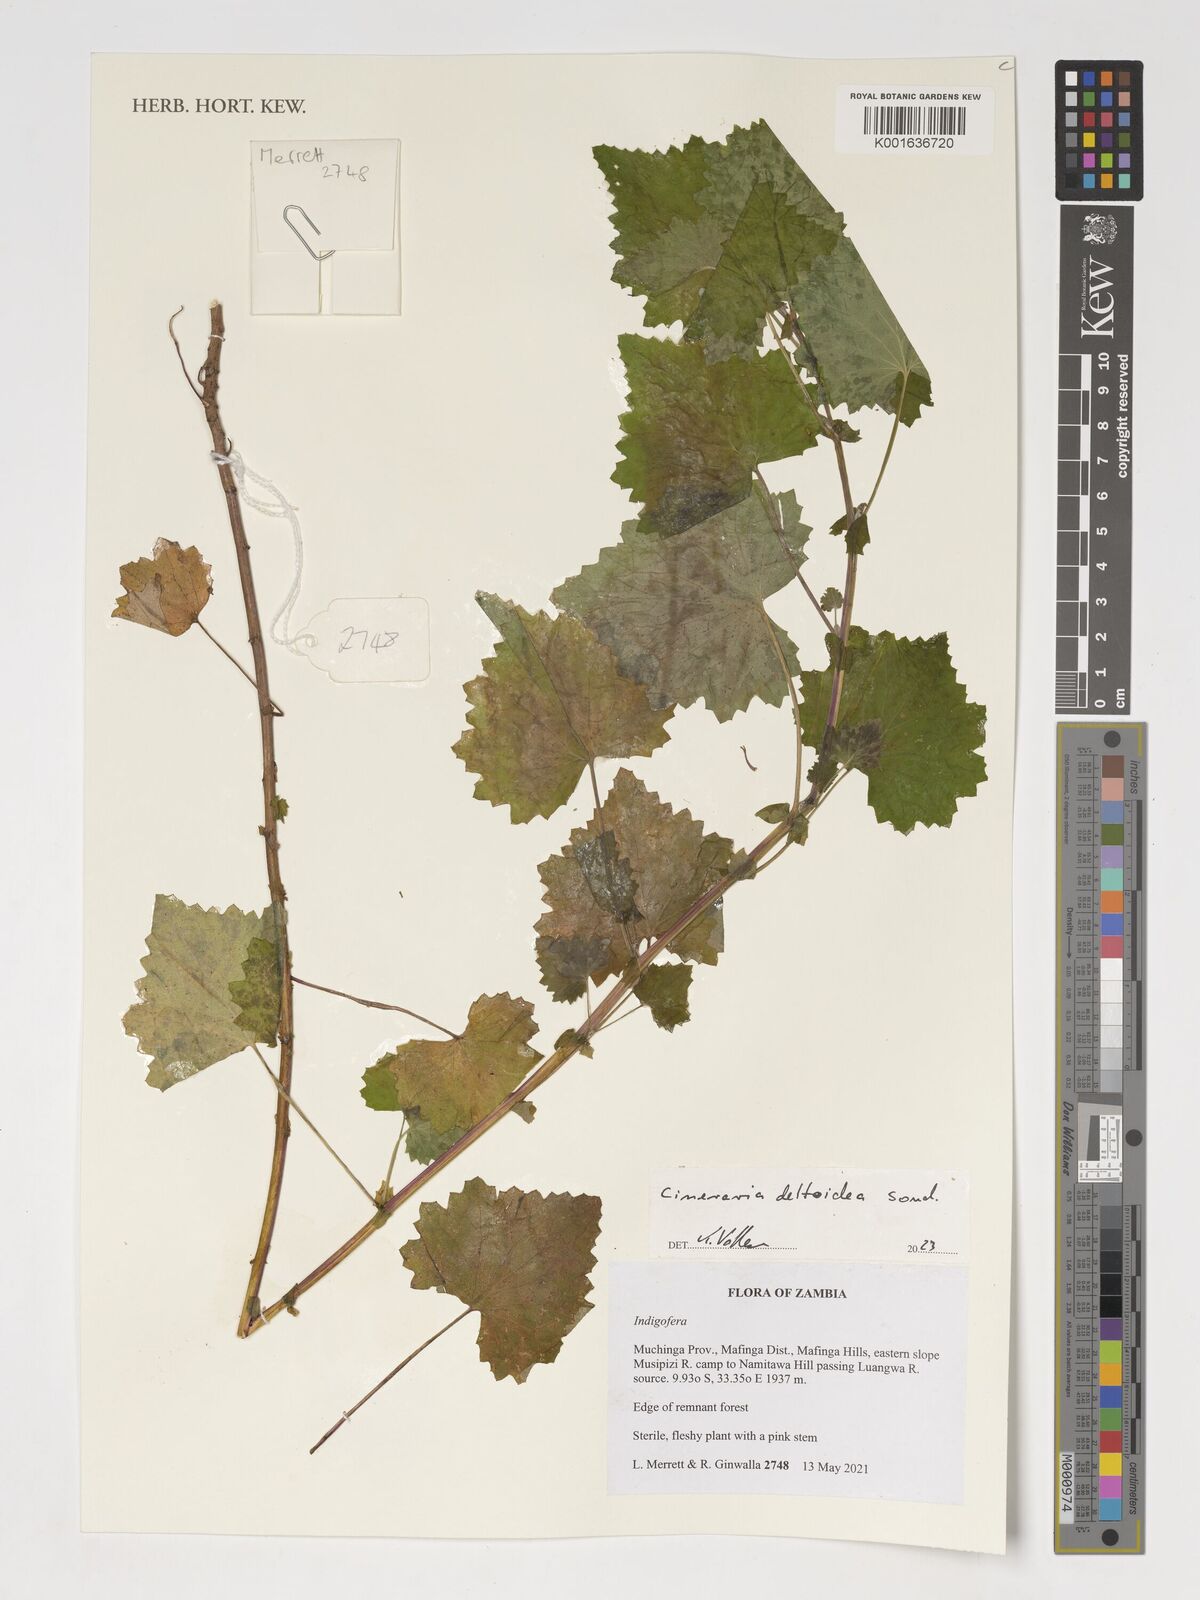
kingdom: Plantae
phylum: Tracheophyta
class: Magnoliopsida
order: Asterales
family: Asteraceae
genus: Cineraria
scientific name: Cineraria deltoidea
